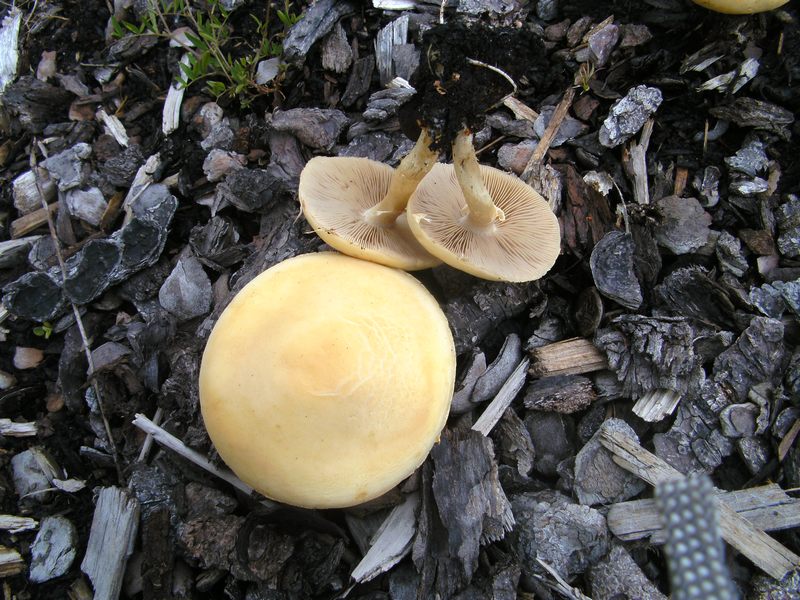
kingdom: Fungi
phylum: Basidiomycota
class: Agaricomycetes
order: Agaricales
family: Strophariaceae
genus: Agrocybe
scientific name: Agrocybe praecox
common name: tidlig agerhat
